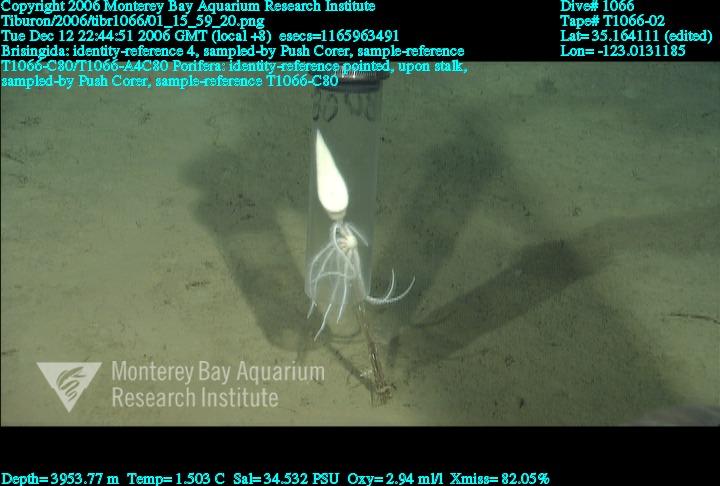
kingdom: Animalia
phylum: Porifera
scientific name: Porifera
